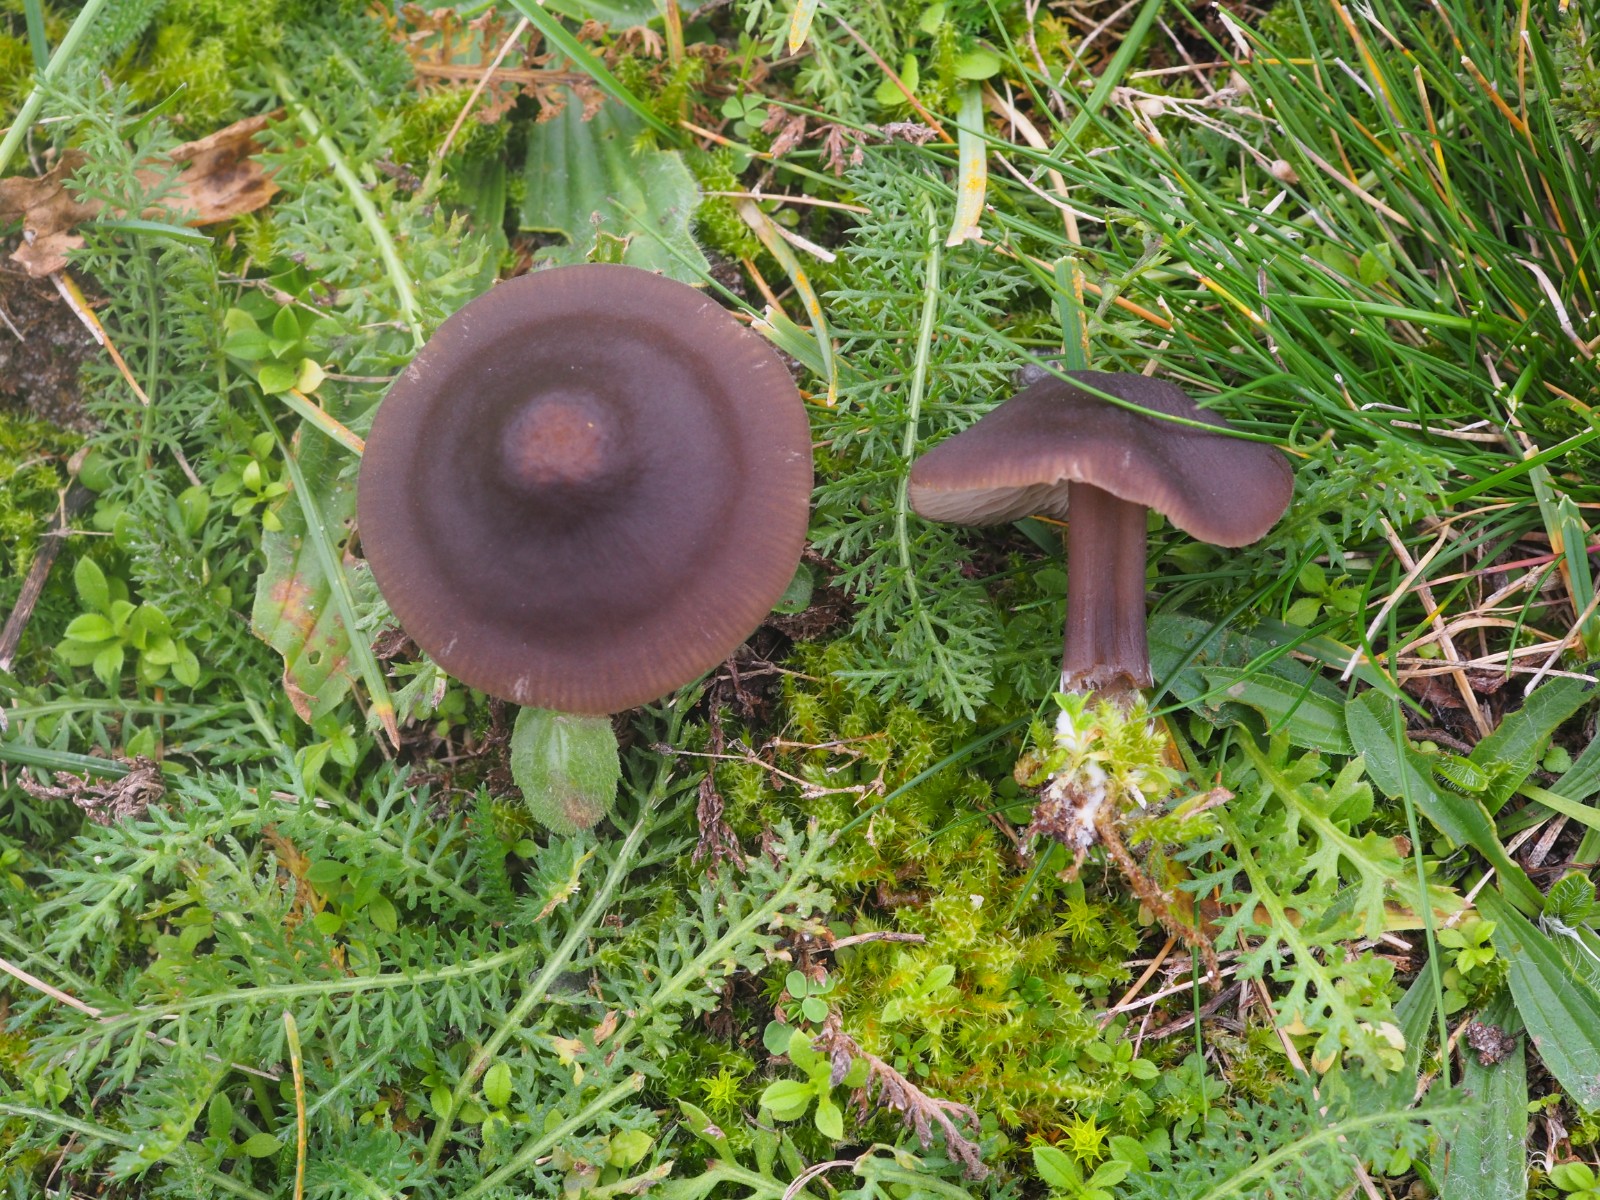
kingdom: Fungi
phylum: Basidiomycota
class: Agaricomycetes
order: Agaricales
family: Entolomataceae
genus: Entoloma
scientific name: Entoloma
